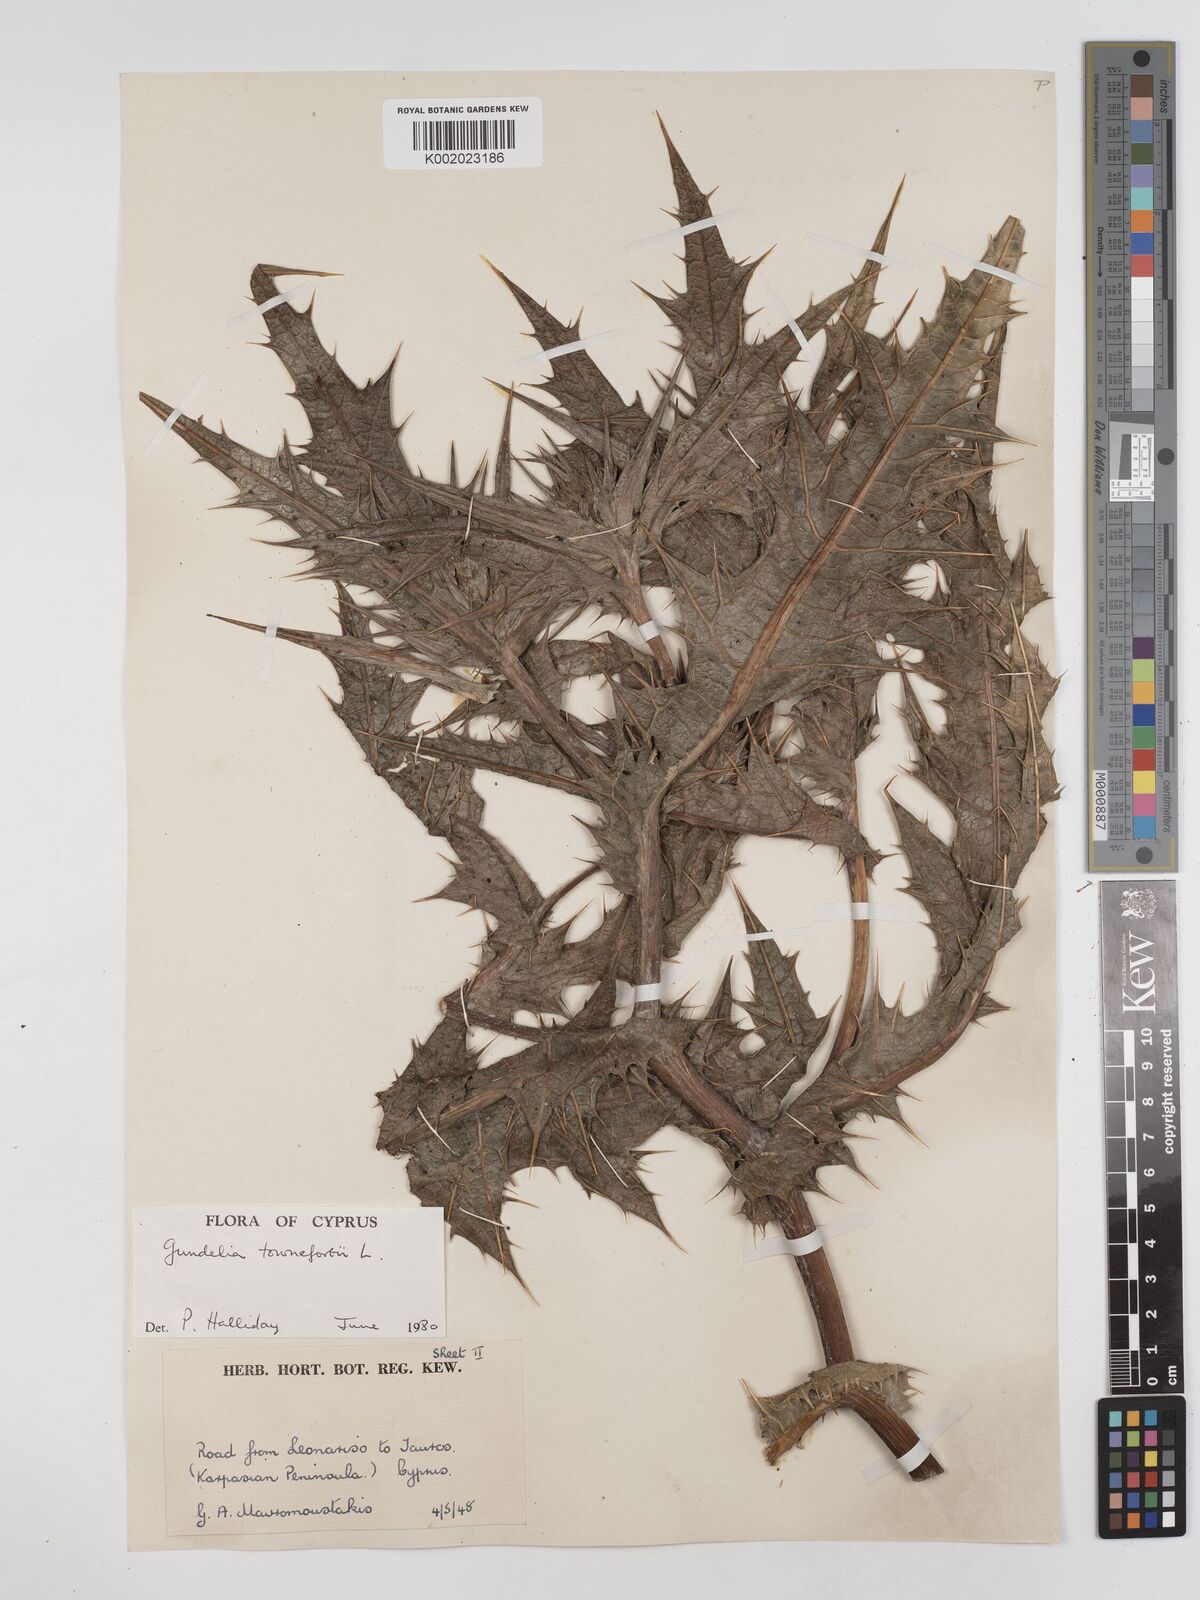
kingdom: Plantae
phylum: Tracheophyta
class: Magnoliopsida
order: Asterales
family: Asteraceae
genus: Gundelia
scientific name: Gundelia tournefortii
